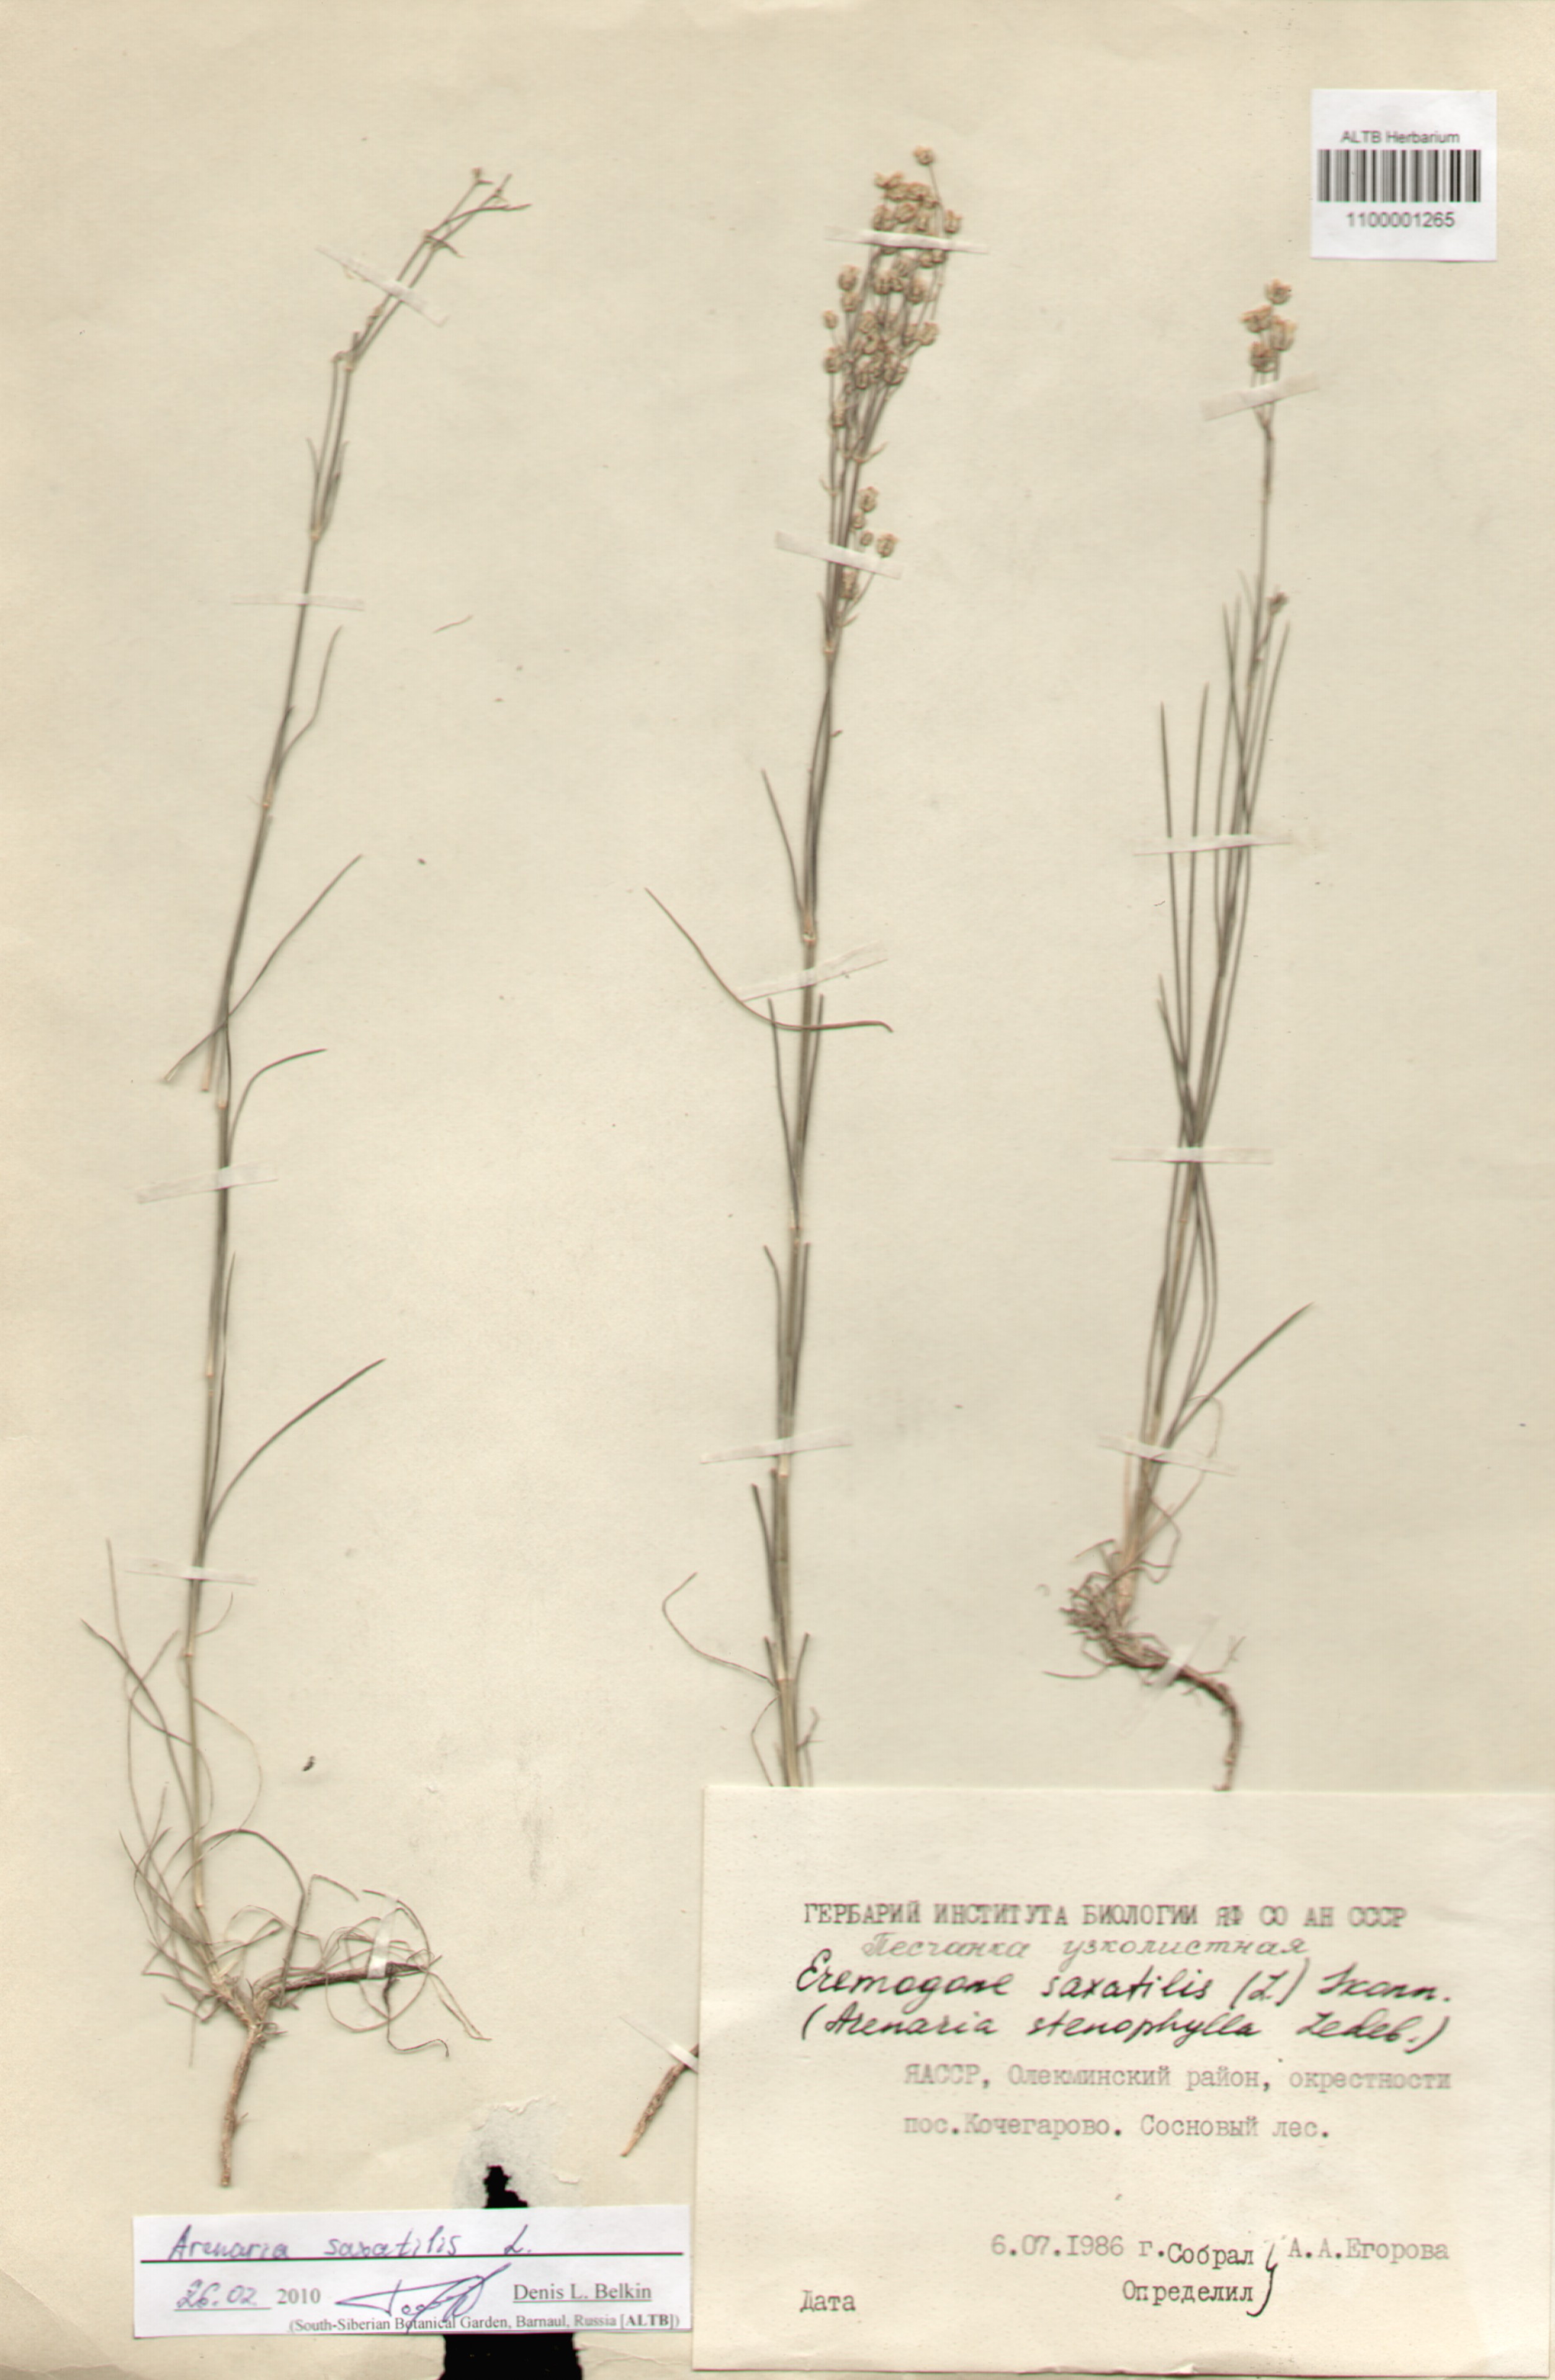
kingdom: Plantae
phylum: Tracheophyta
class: Magnoliopsida
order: Caryophyllales
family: Caryophyllaceae
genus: Eremogone
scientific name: Eremogone saxatilis
